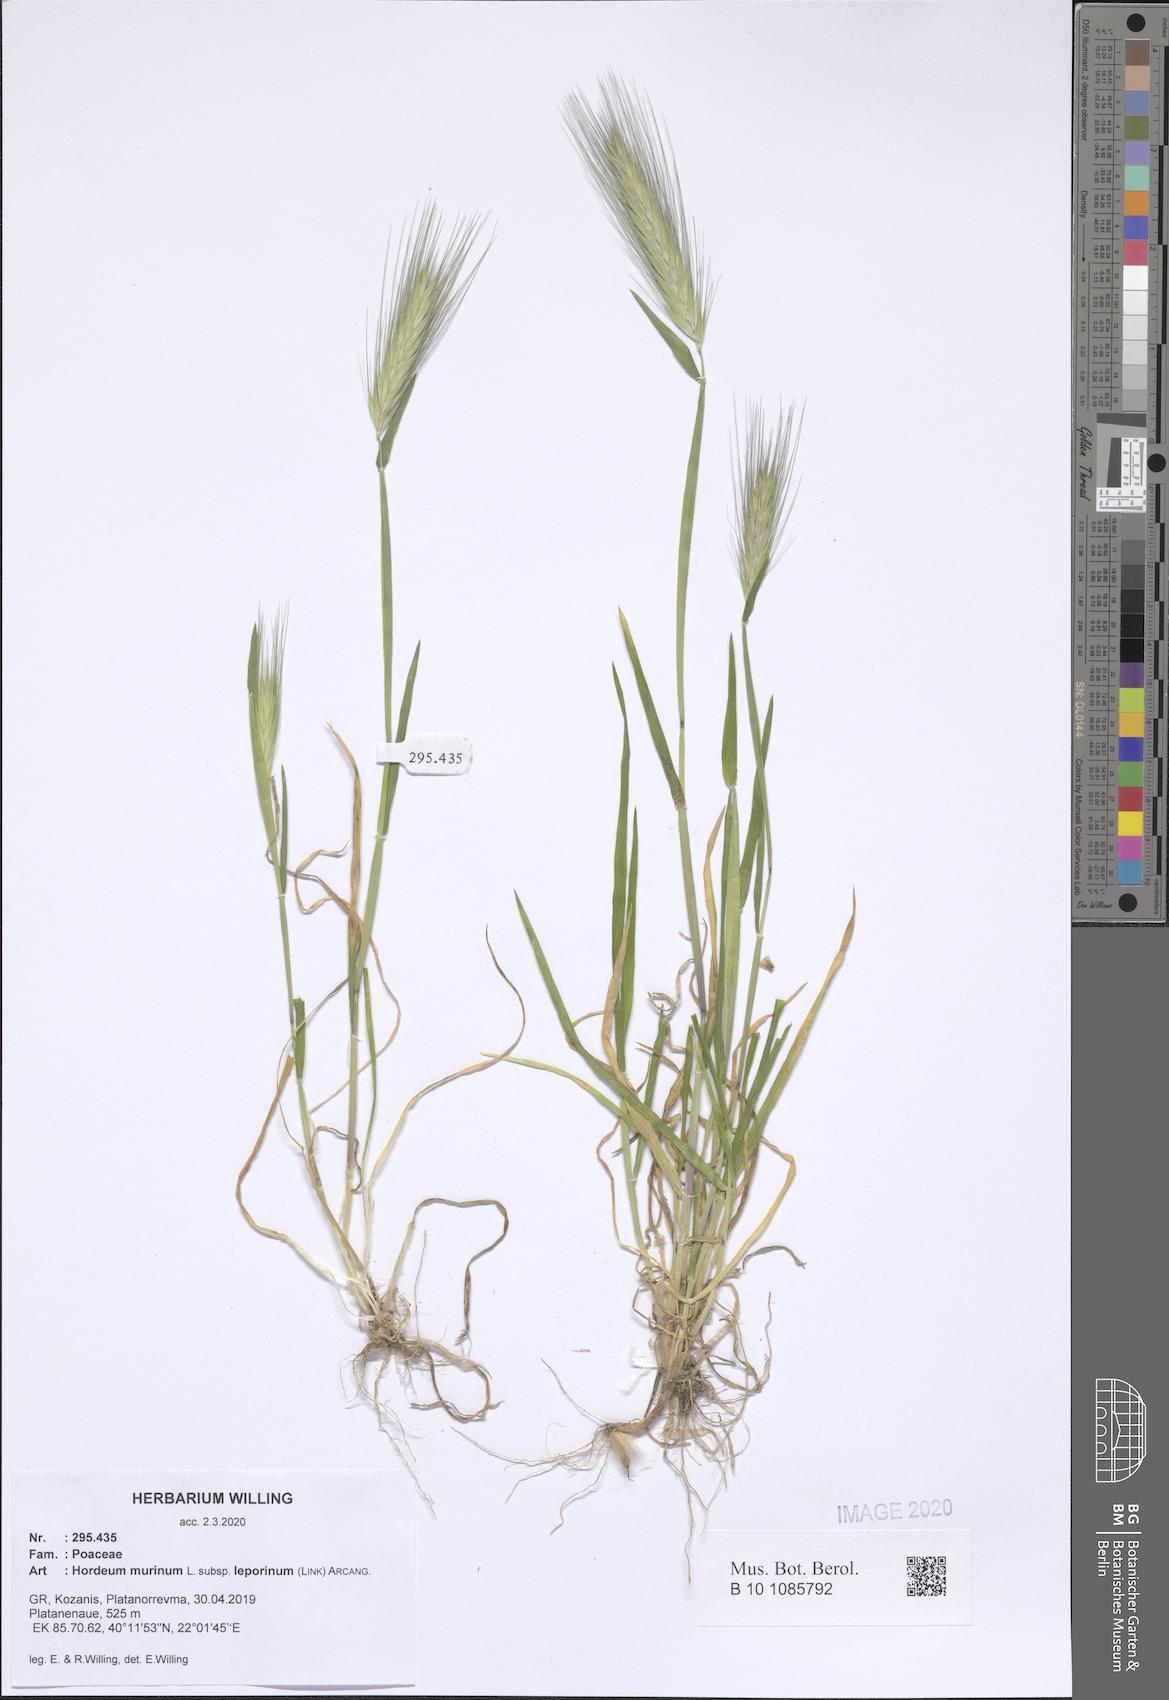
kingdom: Plantae
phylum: Tracheophyta
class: Liliopsida
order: Poales
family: Poaceae
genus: Hordeum
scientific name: Hordeum murinum
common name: Wall barley
